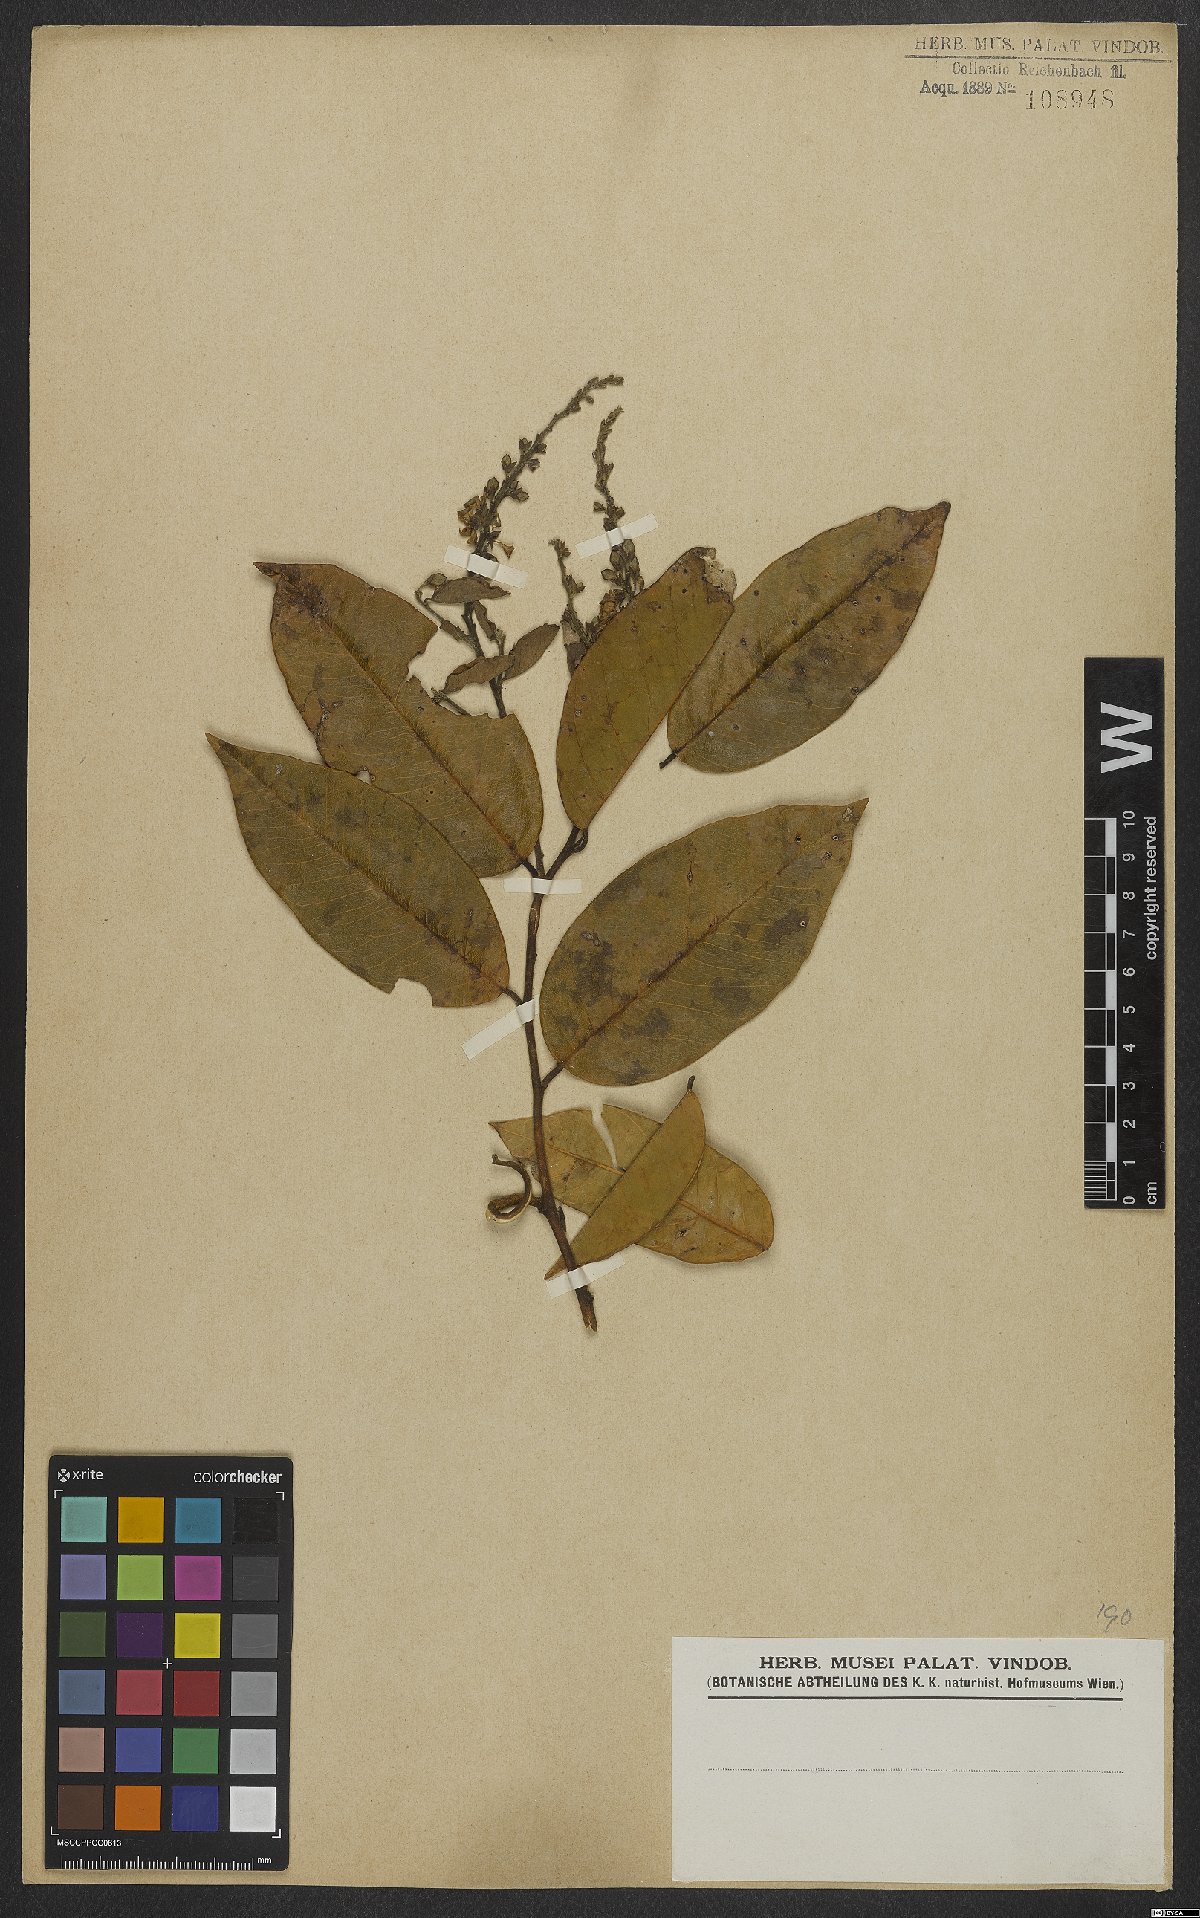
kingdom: Plantae
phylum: Tracheophyta
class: Magnoliopsida
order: Fabales
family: Polygalaceae
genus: Securidaca
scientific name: Securidaca longifolia
